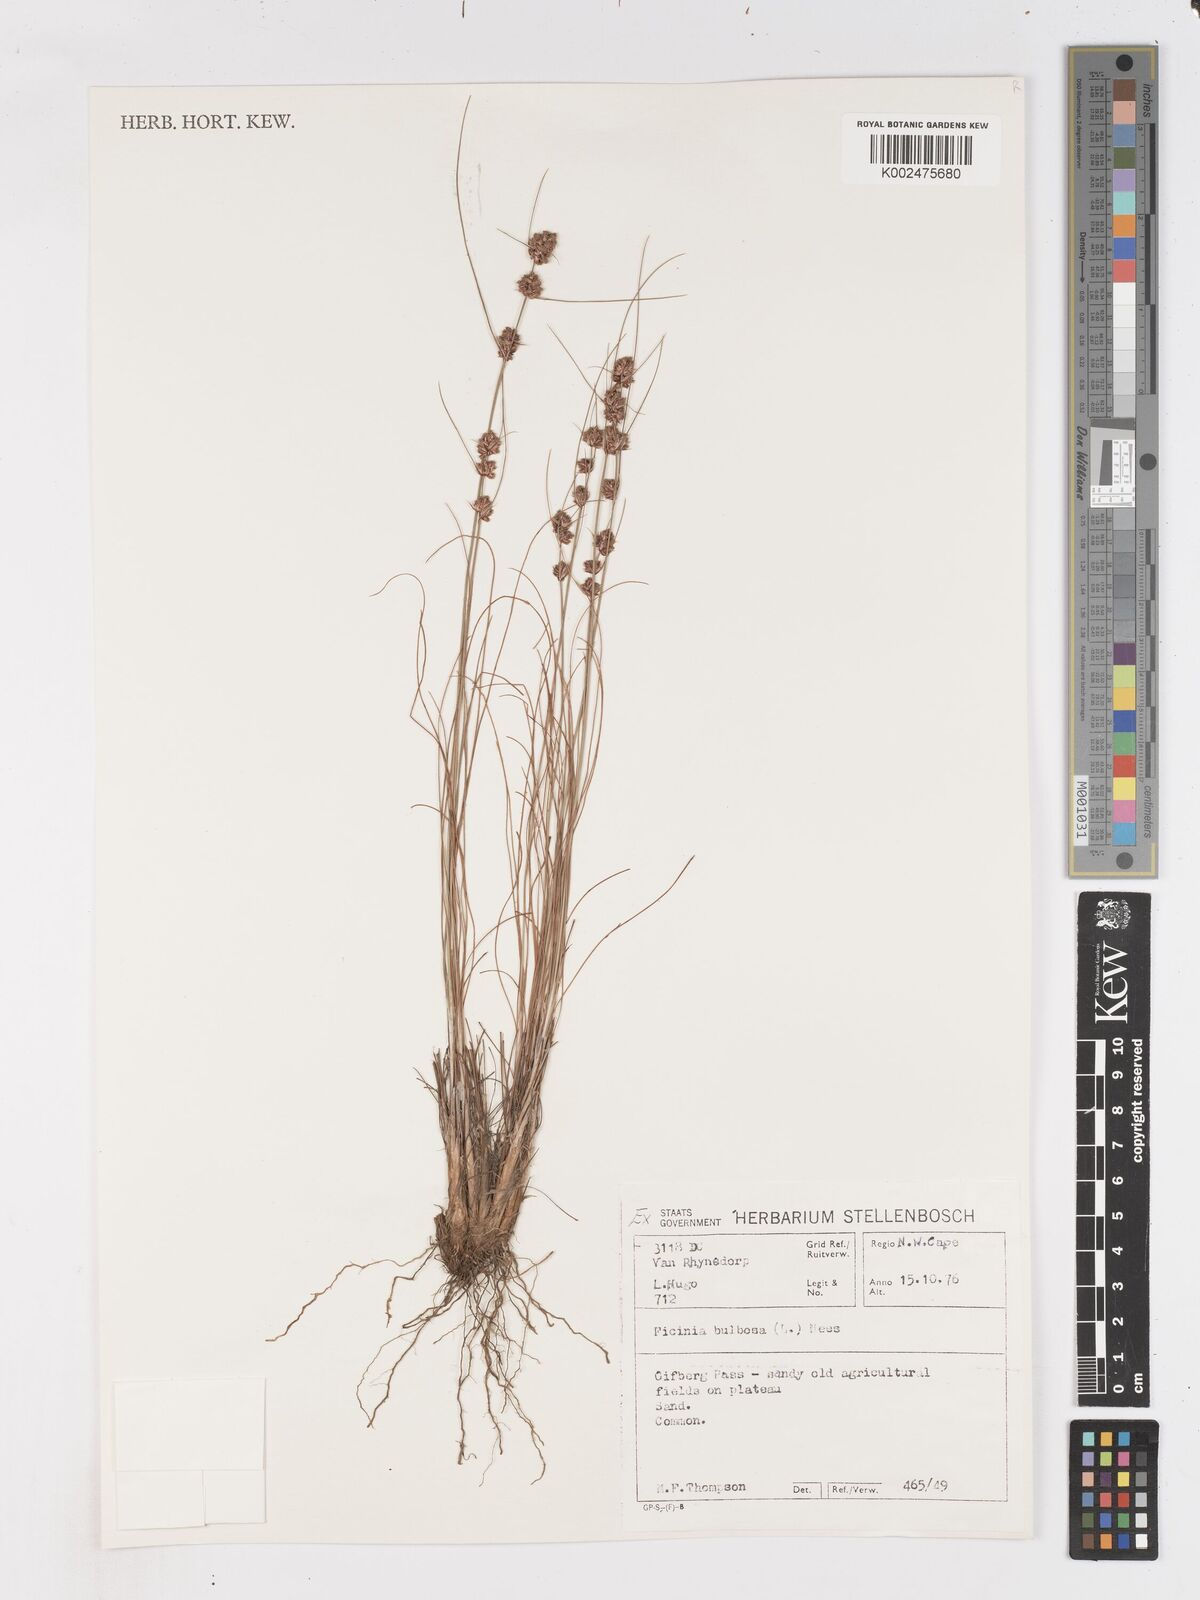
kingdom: Plantae
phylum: Tracheophyta
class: Liliopsida
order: Poales
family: Cyperaceae
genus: Ficinia
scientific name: Ficinia bulbosa
